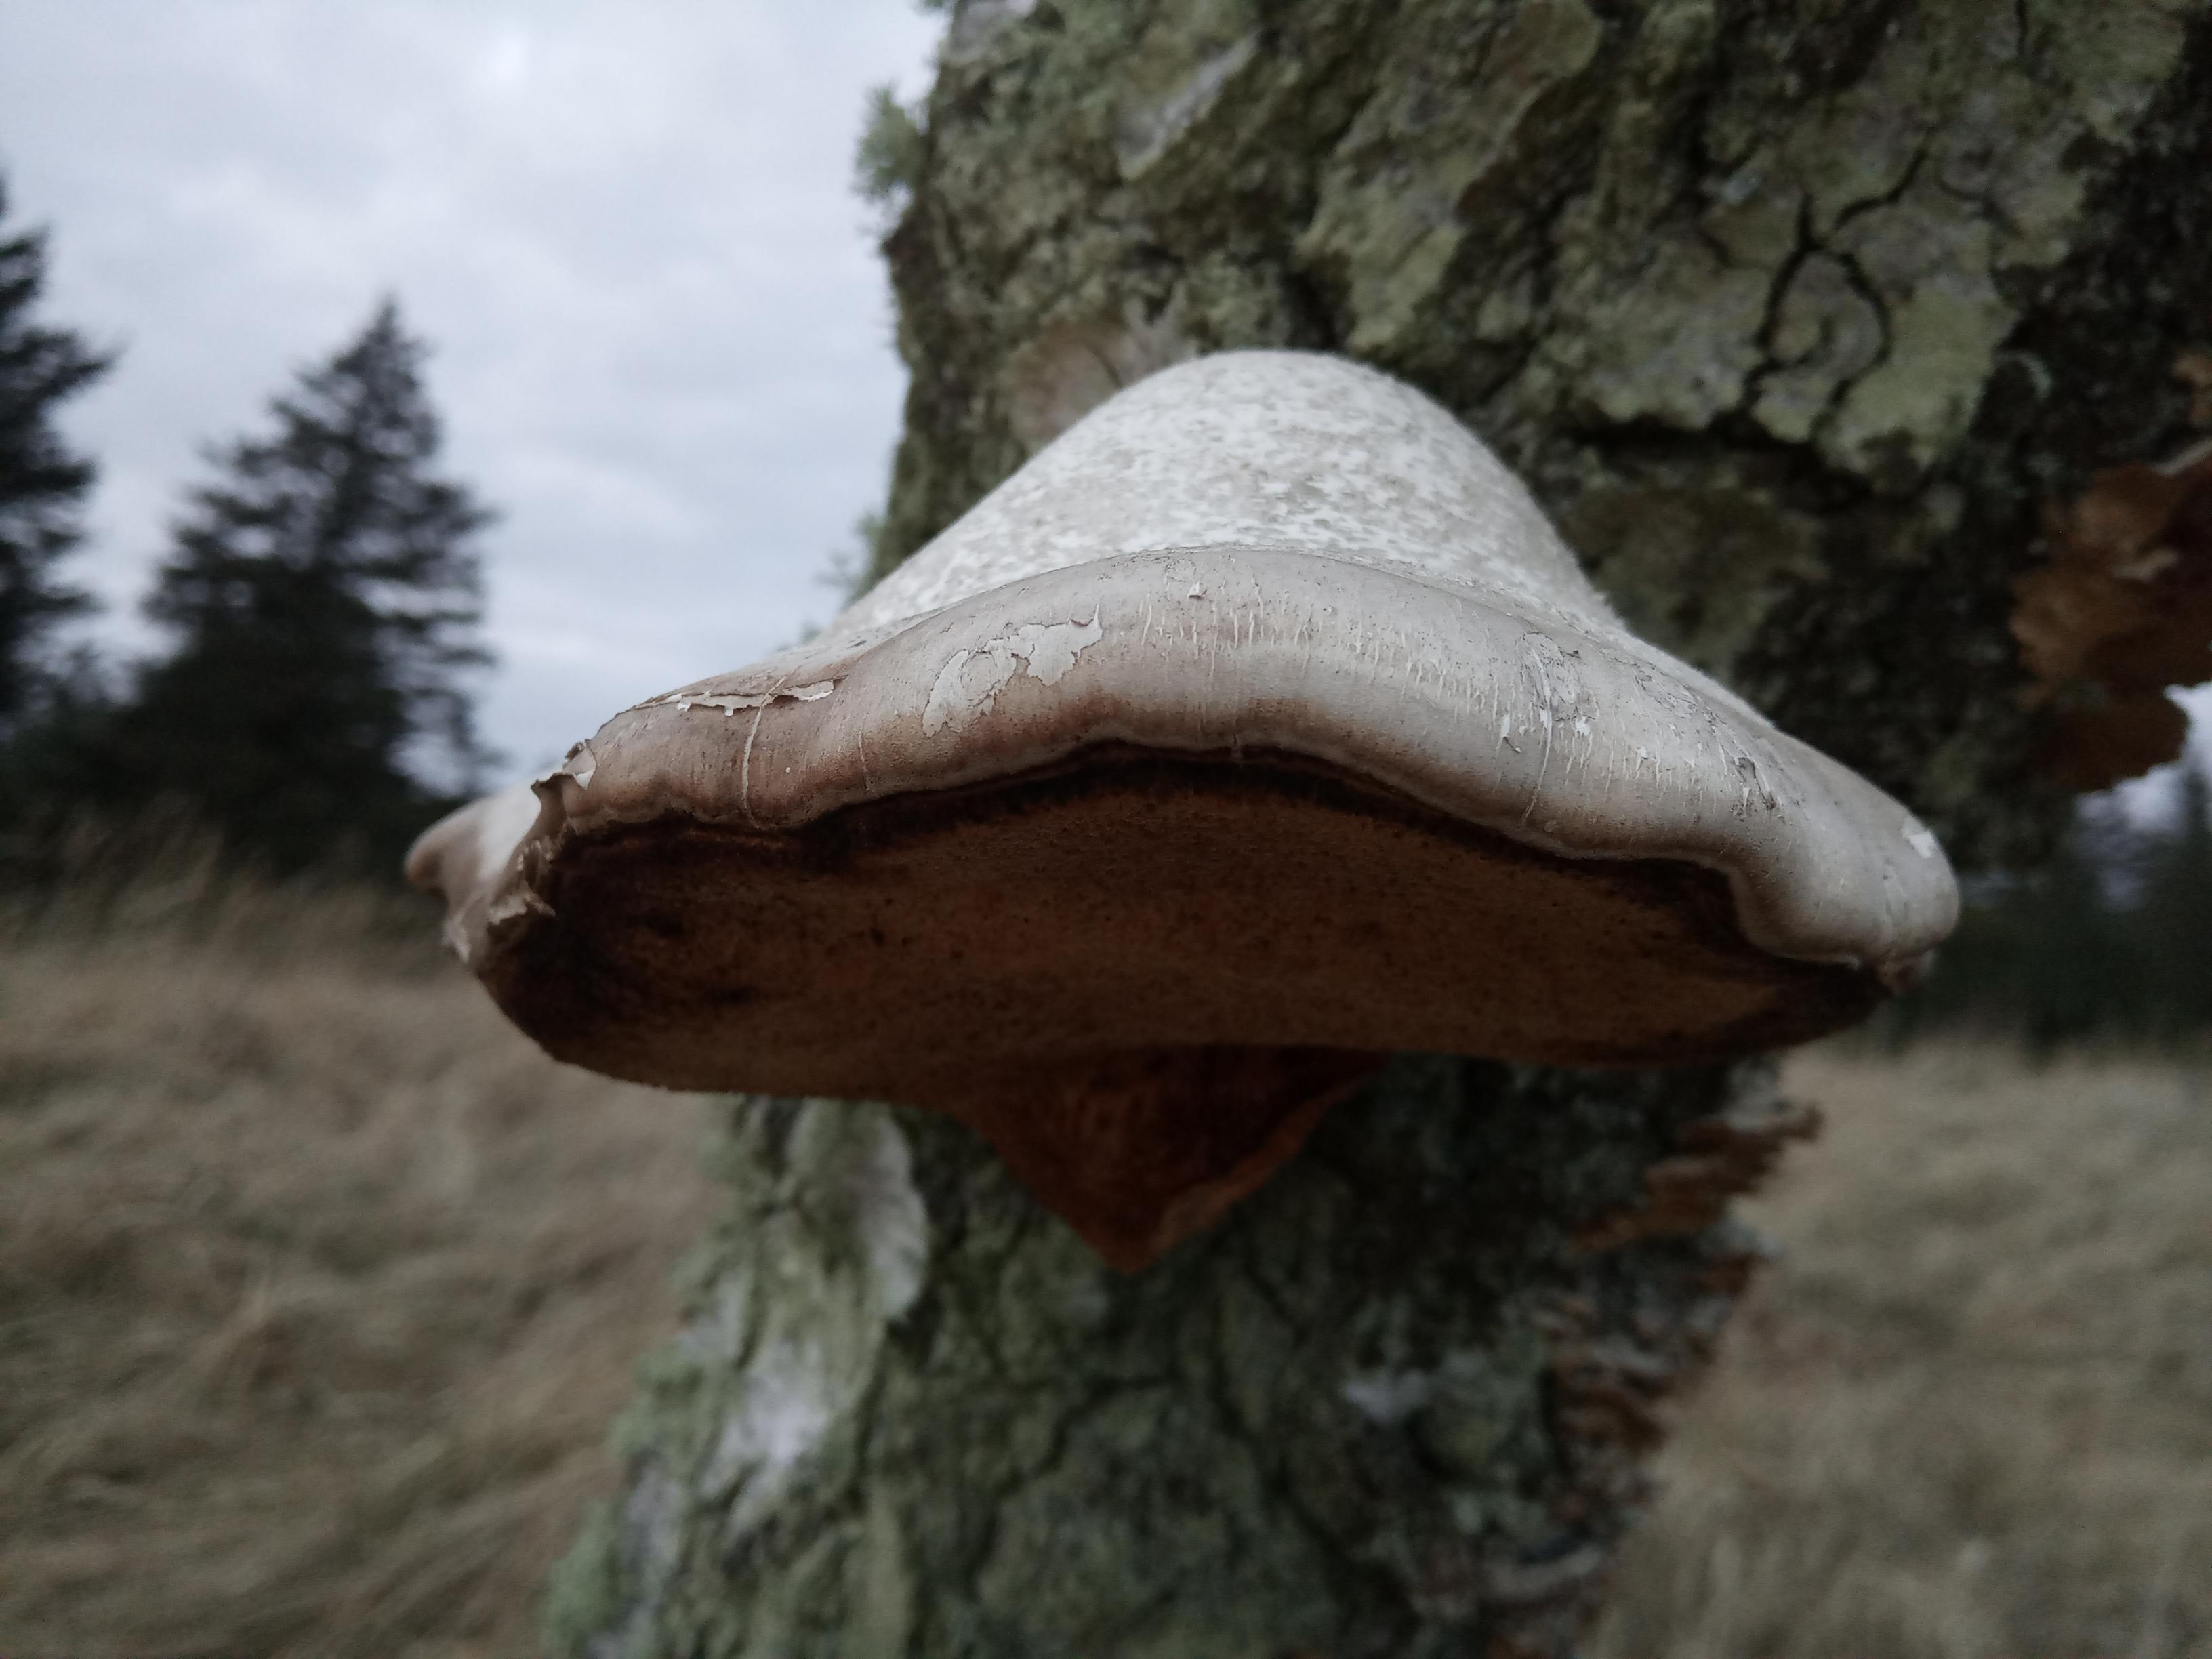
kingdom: Fungi
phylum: Basidiomycota
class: Agaricomycetes
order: Polyporales
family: Fomitopsidaceae
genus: Fomitopsis
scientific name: Fomitopsis betulina
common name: birkeporesvamp
